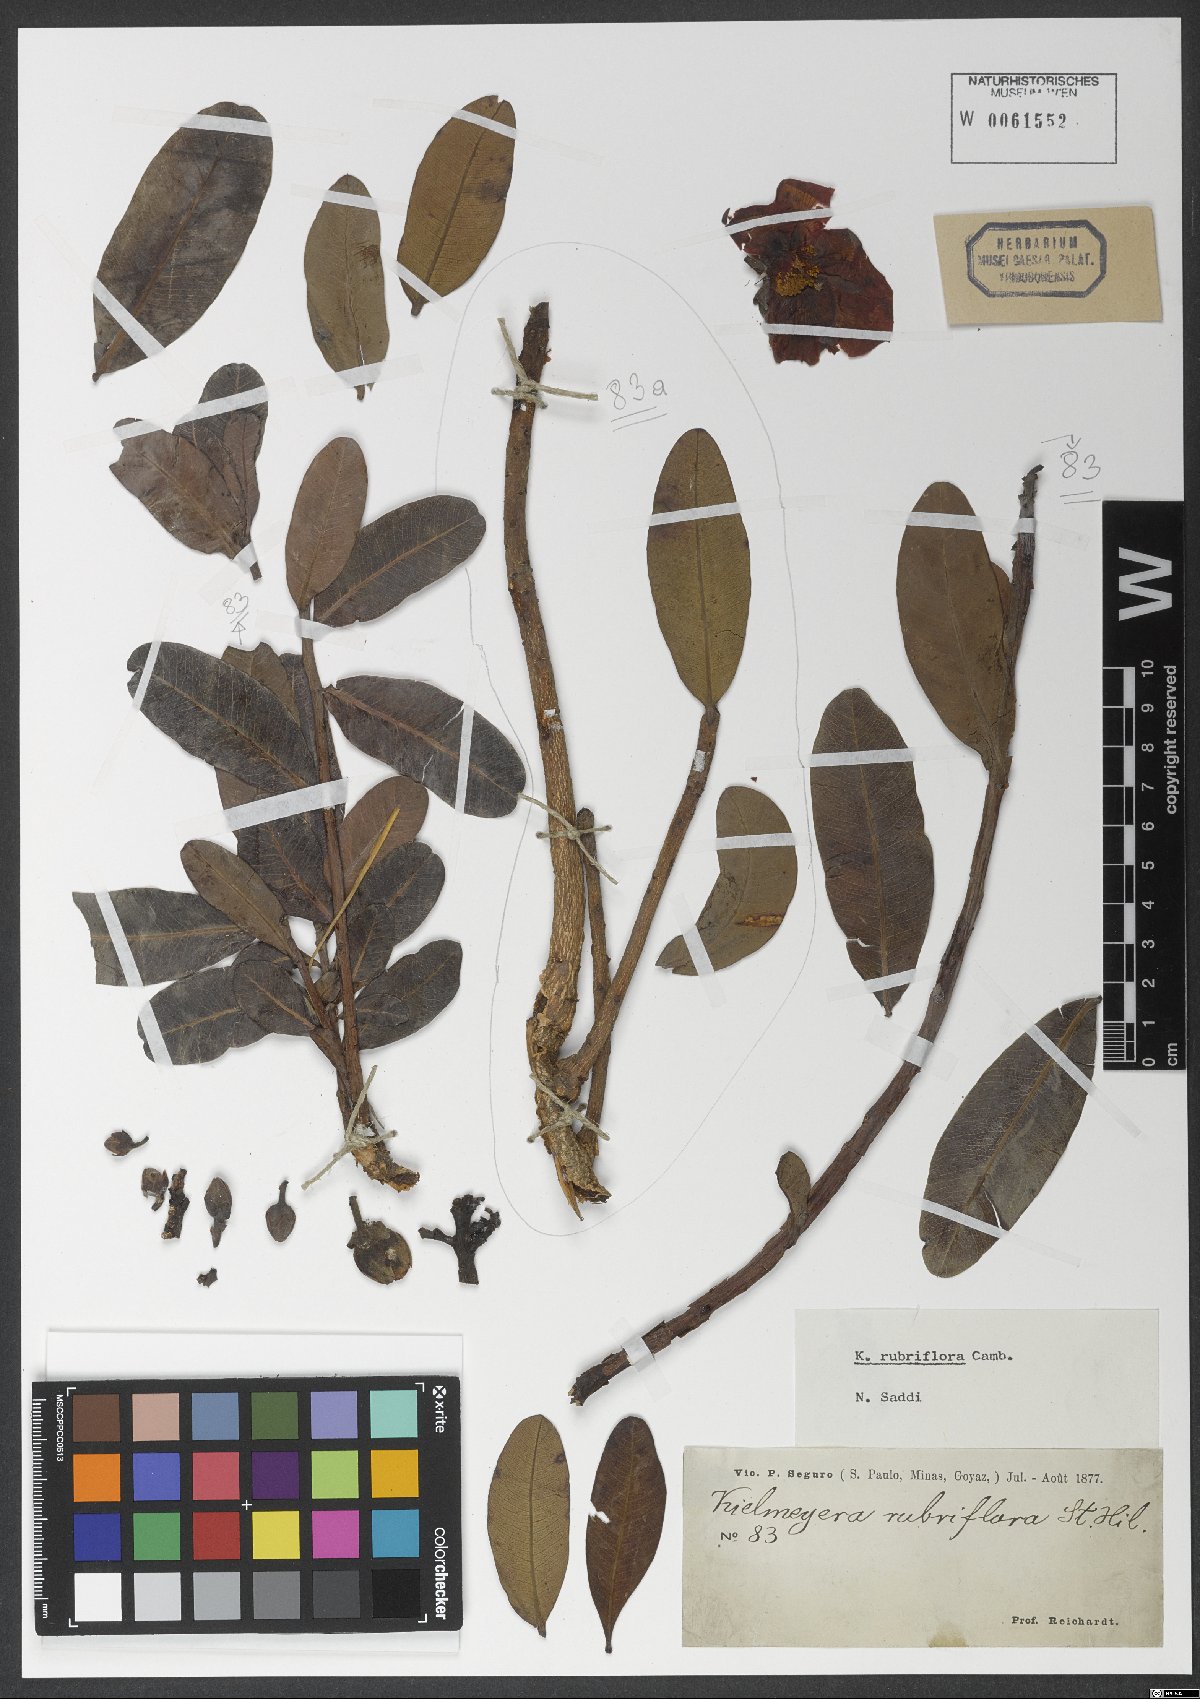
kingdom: Plantae
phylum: Tracheophyta
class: Magnoliopsida
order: Malpighiales
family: Calophyllaceae
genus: Kielmeyera
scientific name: Kielmeyera rubriflora
